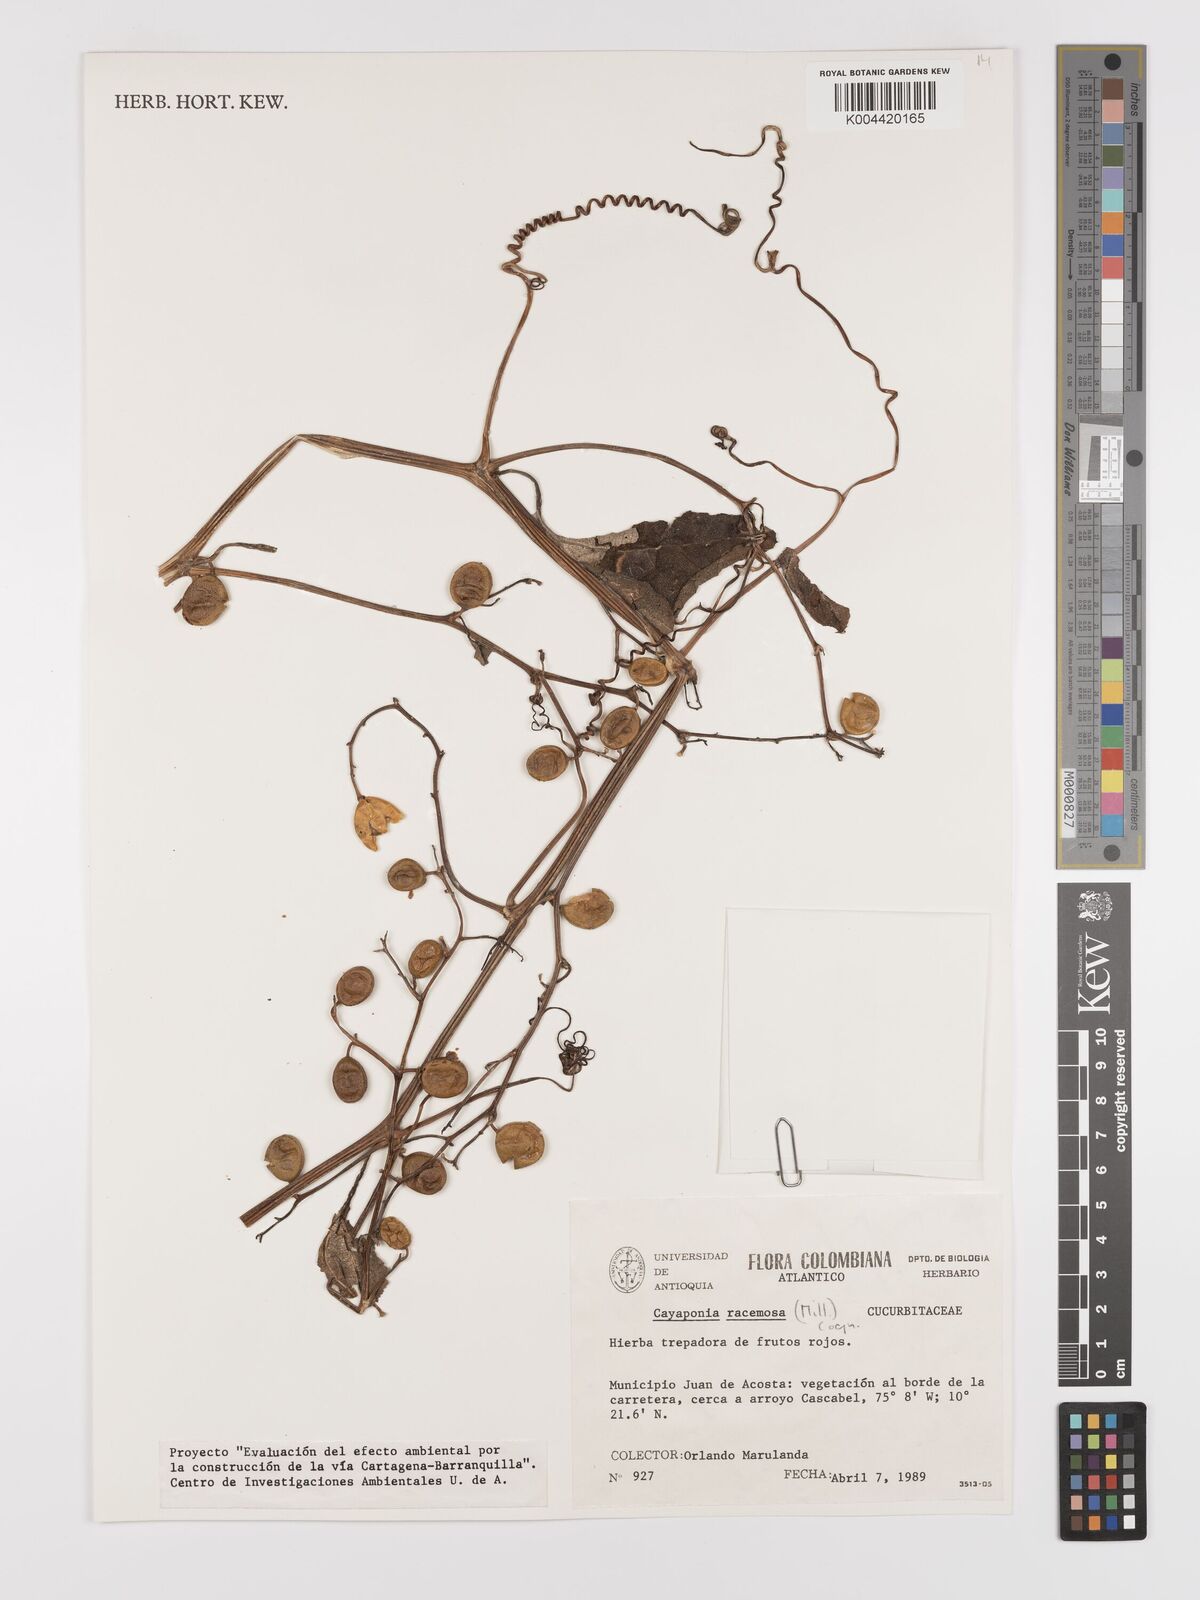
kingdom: Plantae
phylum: Tracheophyta
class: Magnoliopsida
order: Cucurbitales
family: Cucurbitaceae
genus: Cayaponia
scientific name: Cayaponia racemosa
